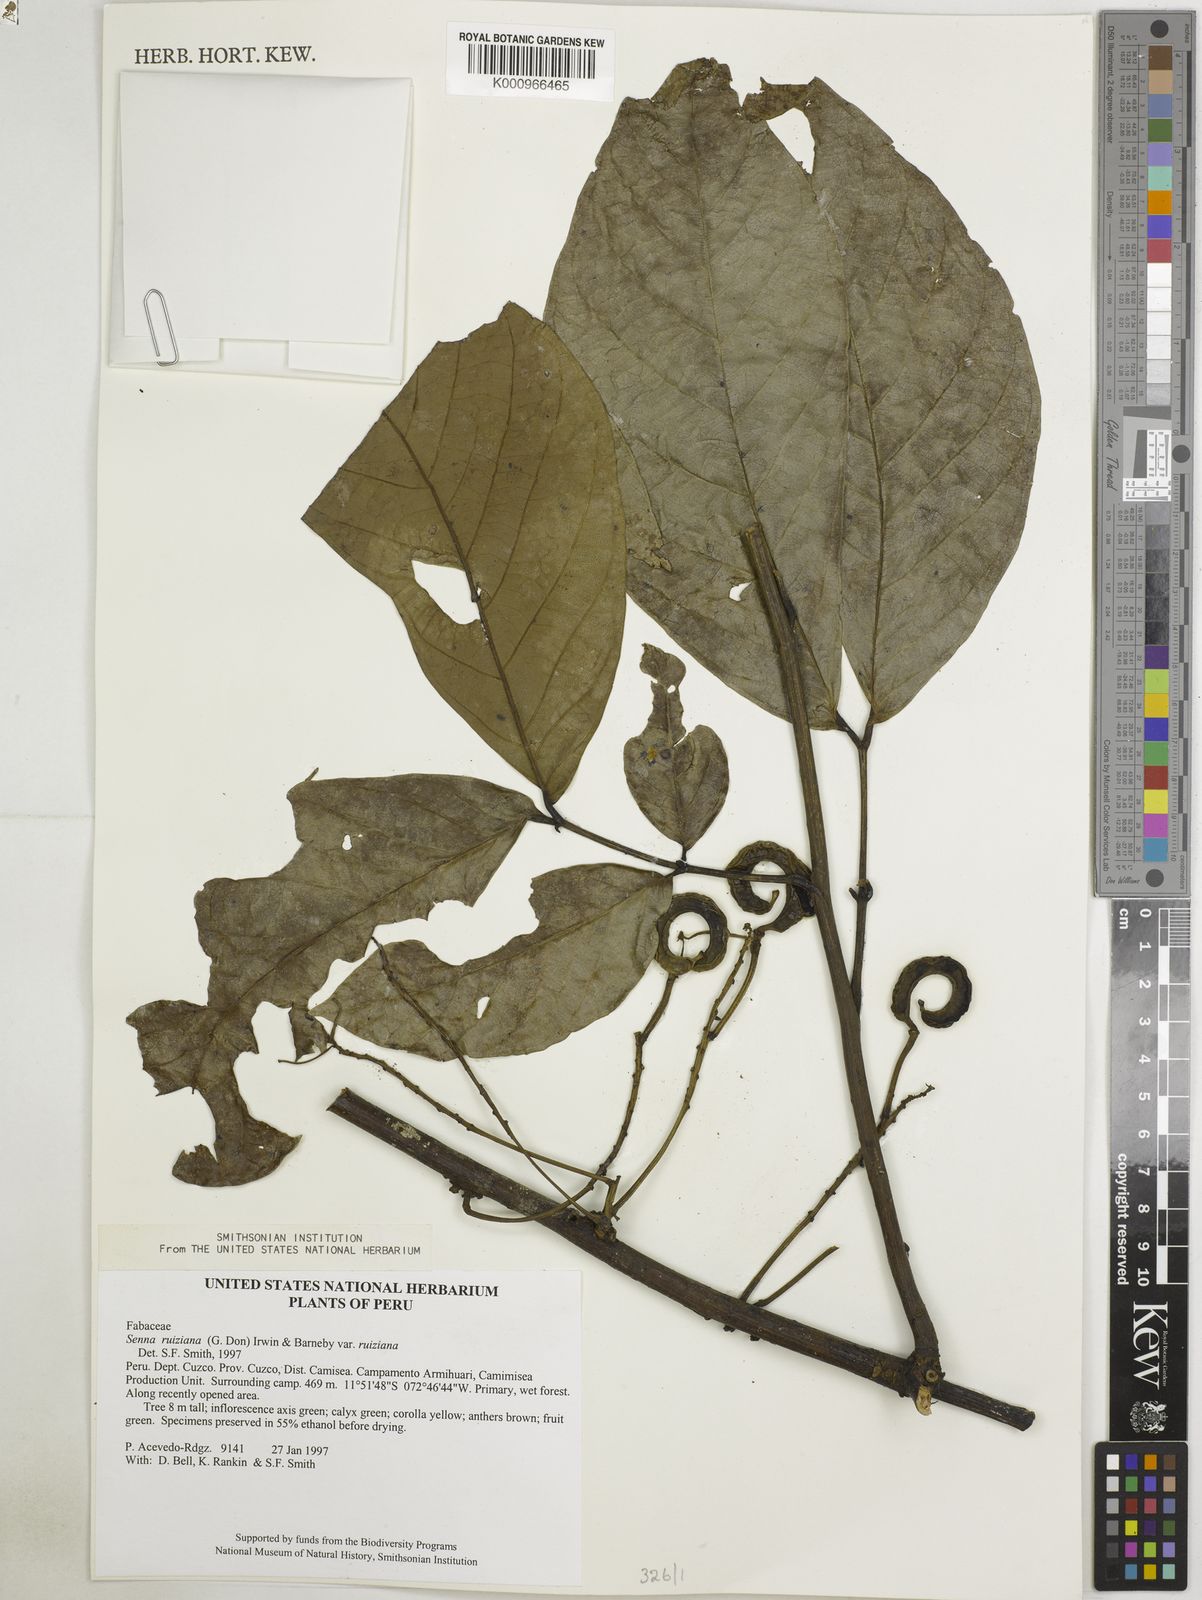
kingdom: Plantae
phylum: Tracheophyta
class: Magnoliopsida
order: Fabales
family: Fabaceae
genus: Senna
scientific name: Senna ruiziana
